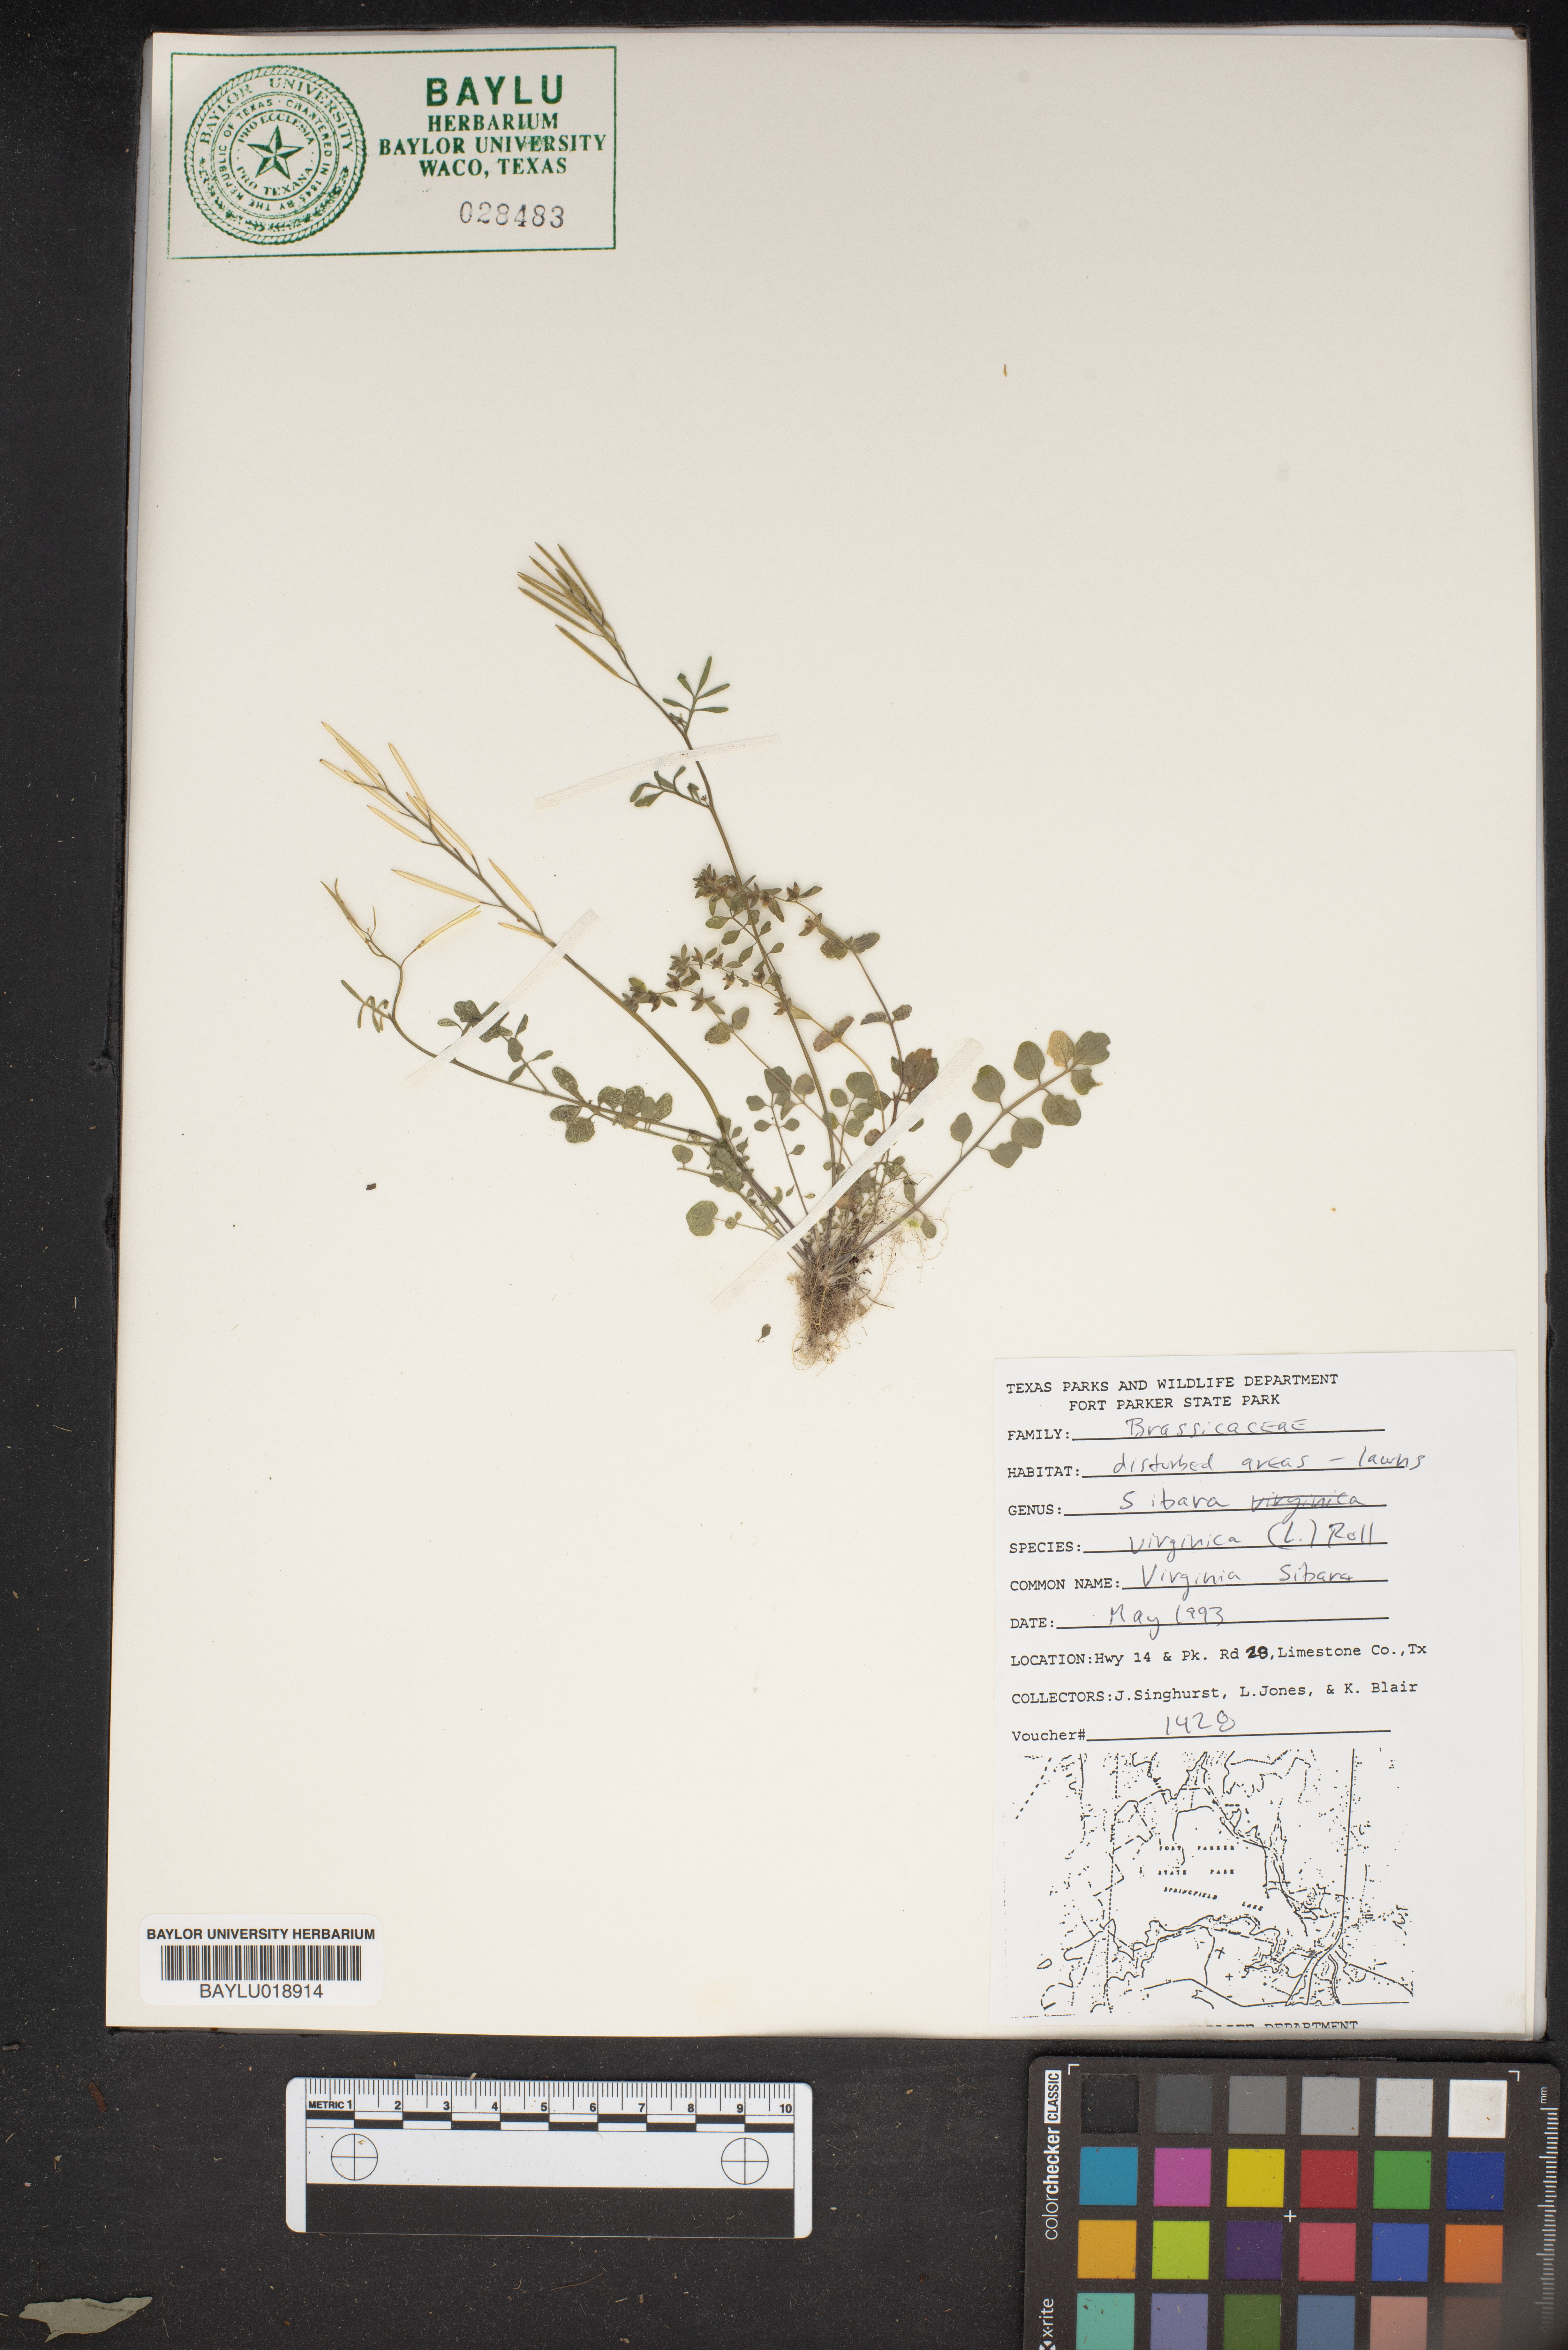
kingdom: Plantae
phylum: Tracheophyta
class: Magnoliopsida
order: Brassicales
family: Brassicaceae
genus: Planodes
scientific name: Planodes virginicum
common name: Virginia cress
